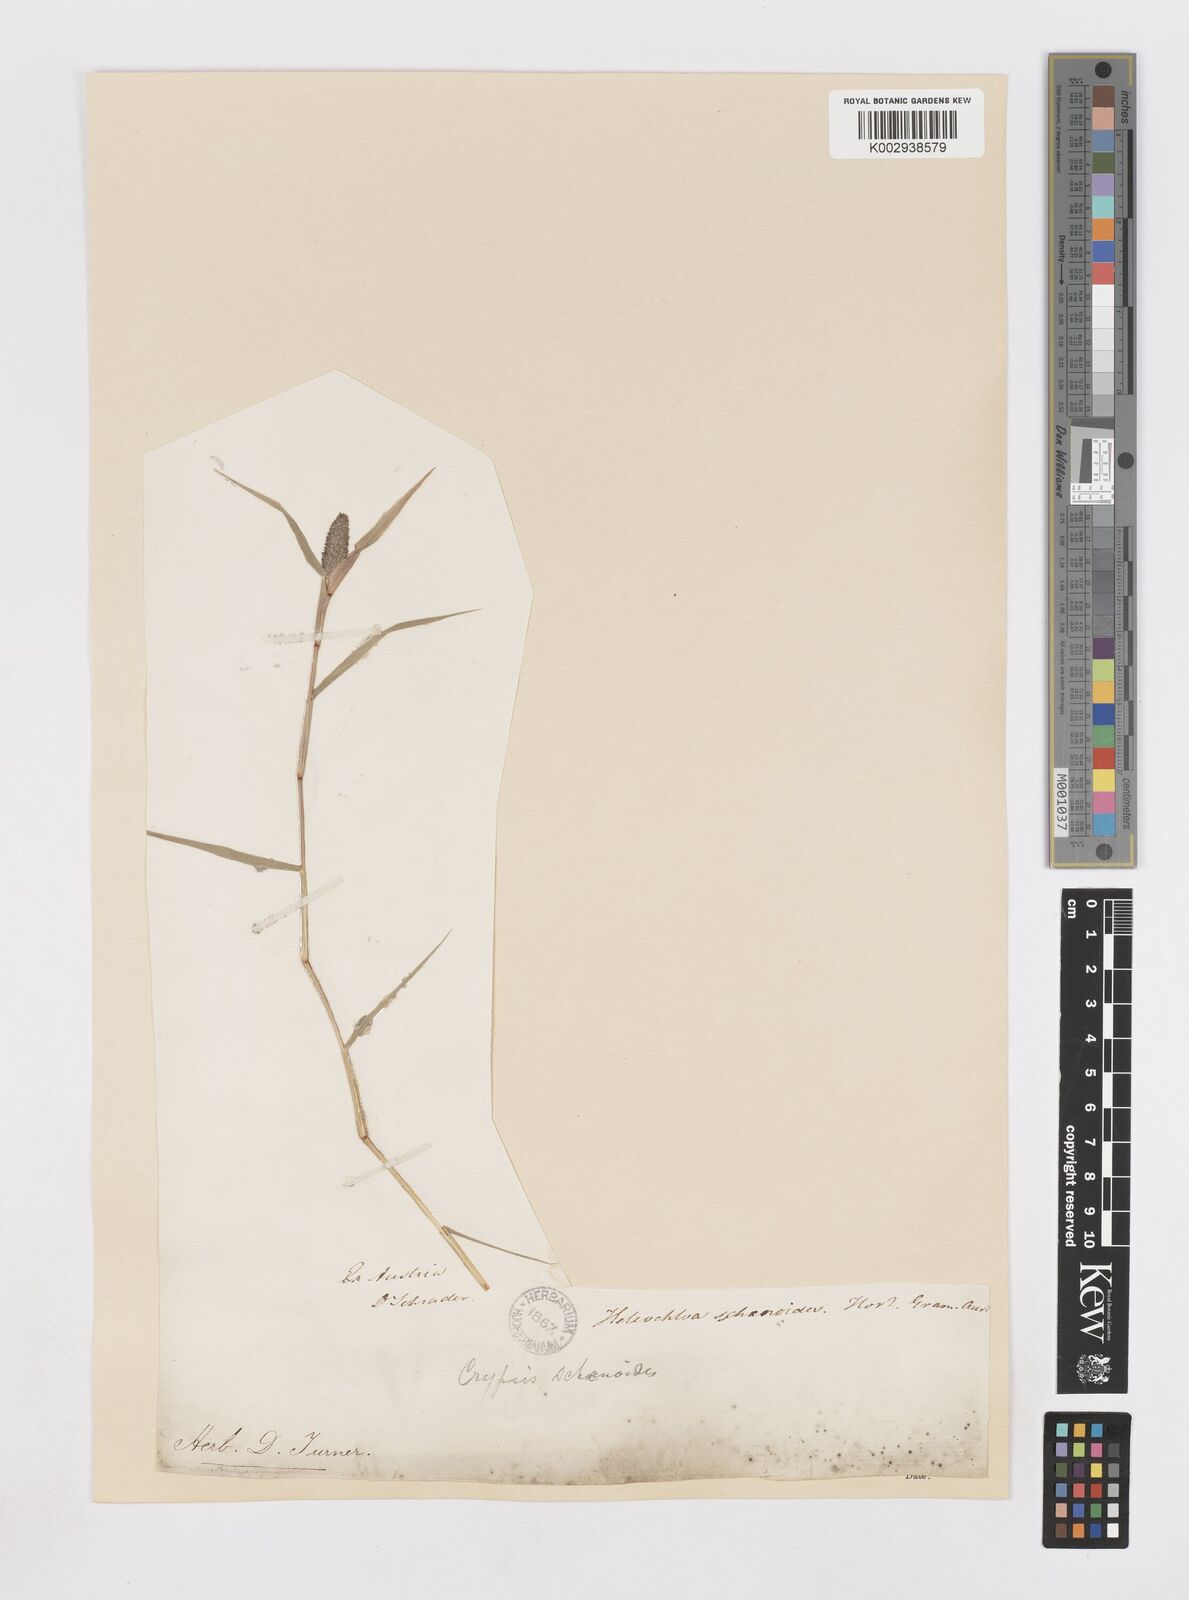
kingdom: Plantae
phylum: Tracheophyta
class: Liliopsida
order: Poales
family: Poaceae
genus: Sporobolus
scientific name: Sporobolus schoenoides
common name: Rush-like timothy
